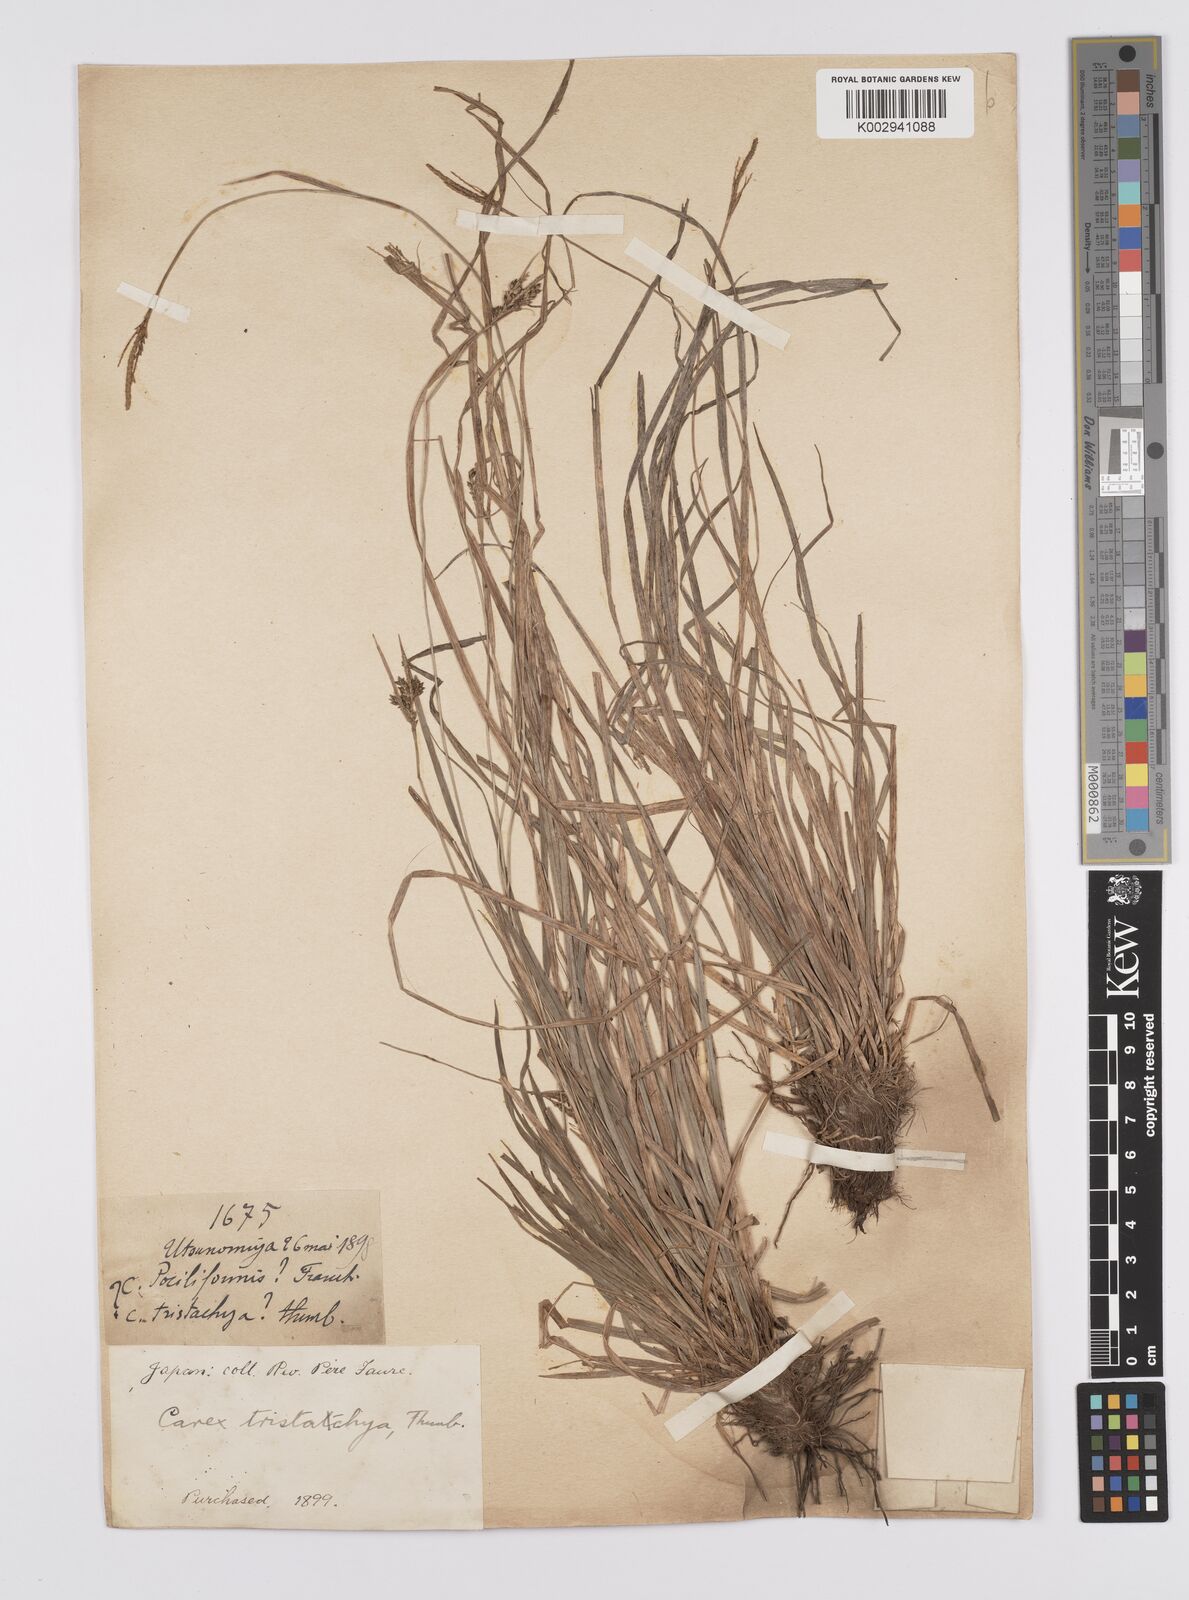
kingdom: Plantae
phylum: Tracheophyta
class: Liliopsida
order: Poales
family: Cyperaceae
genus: Carex
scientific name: Carex tristachya
